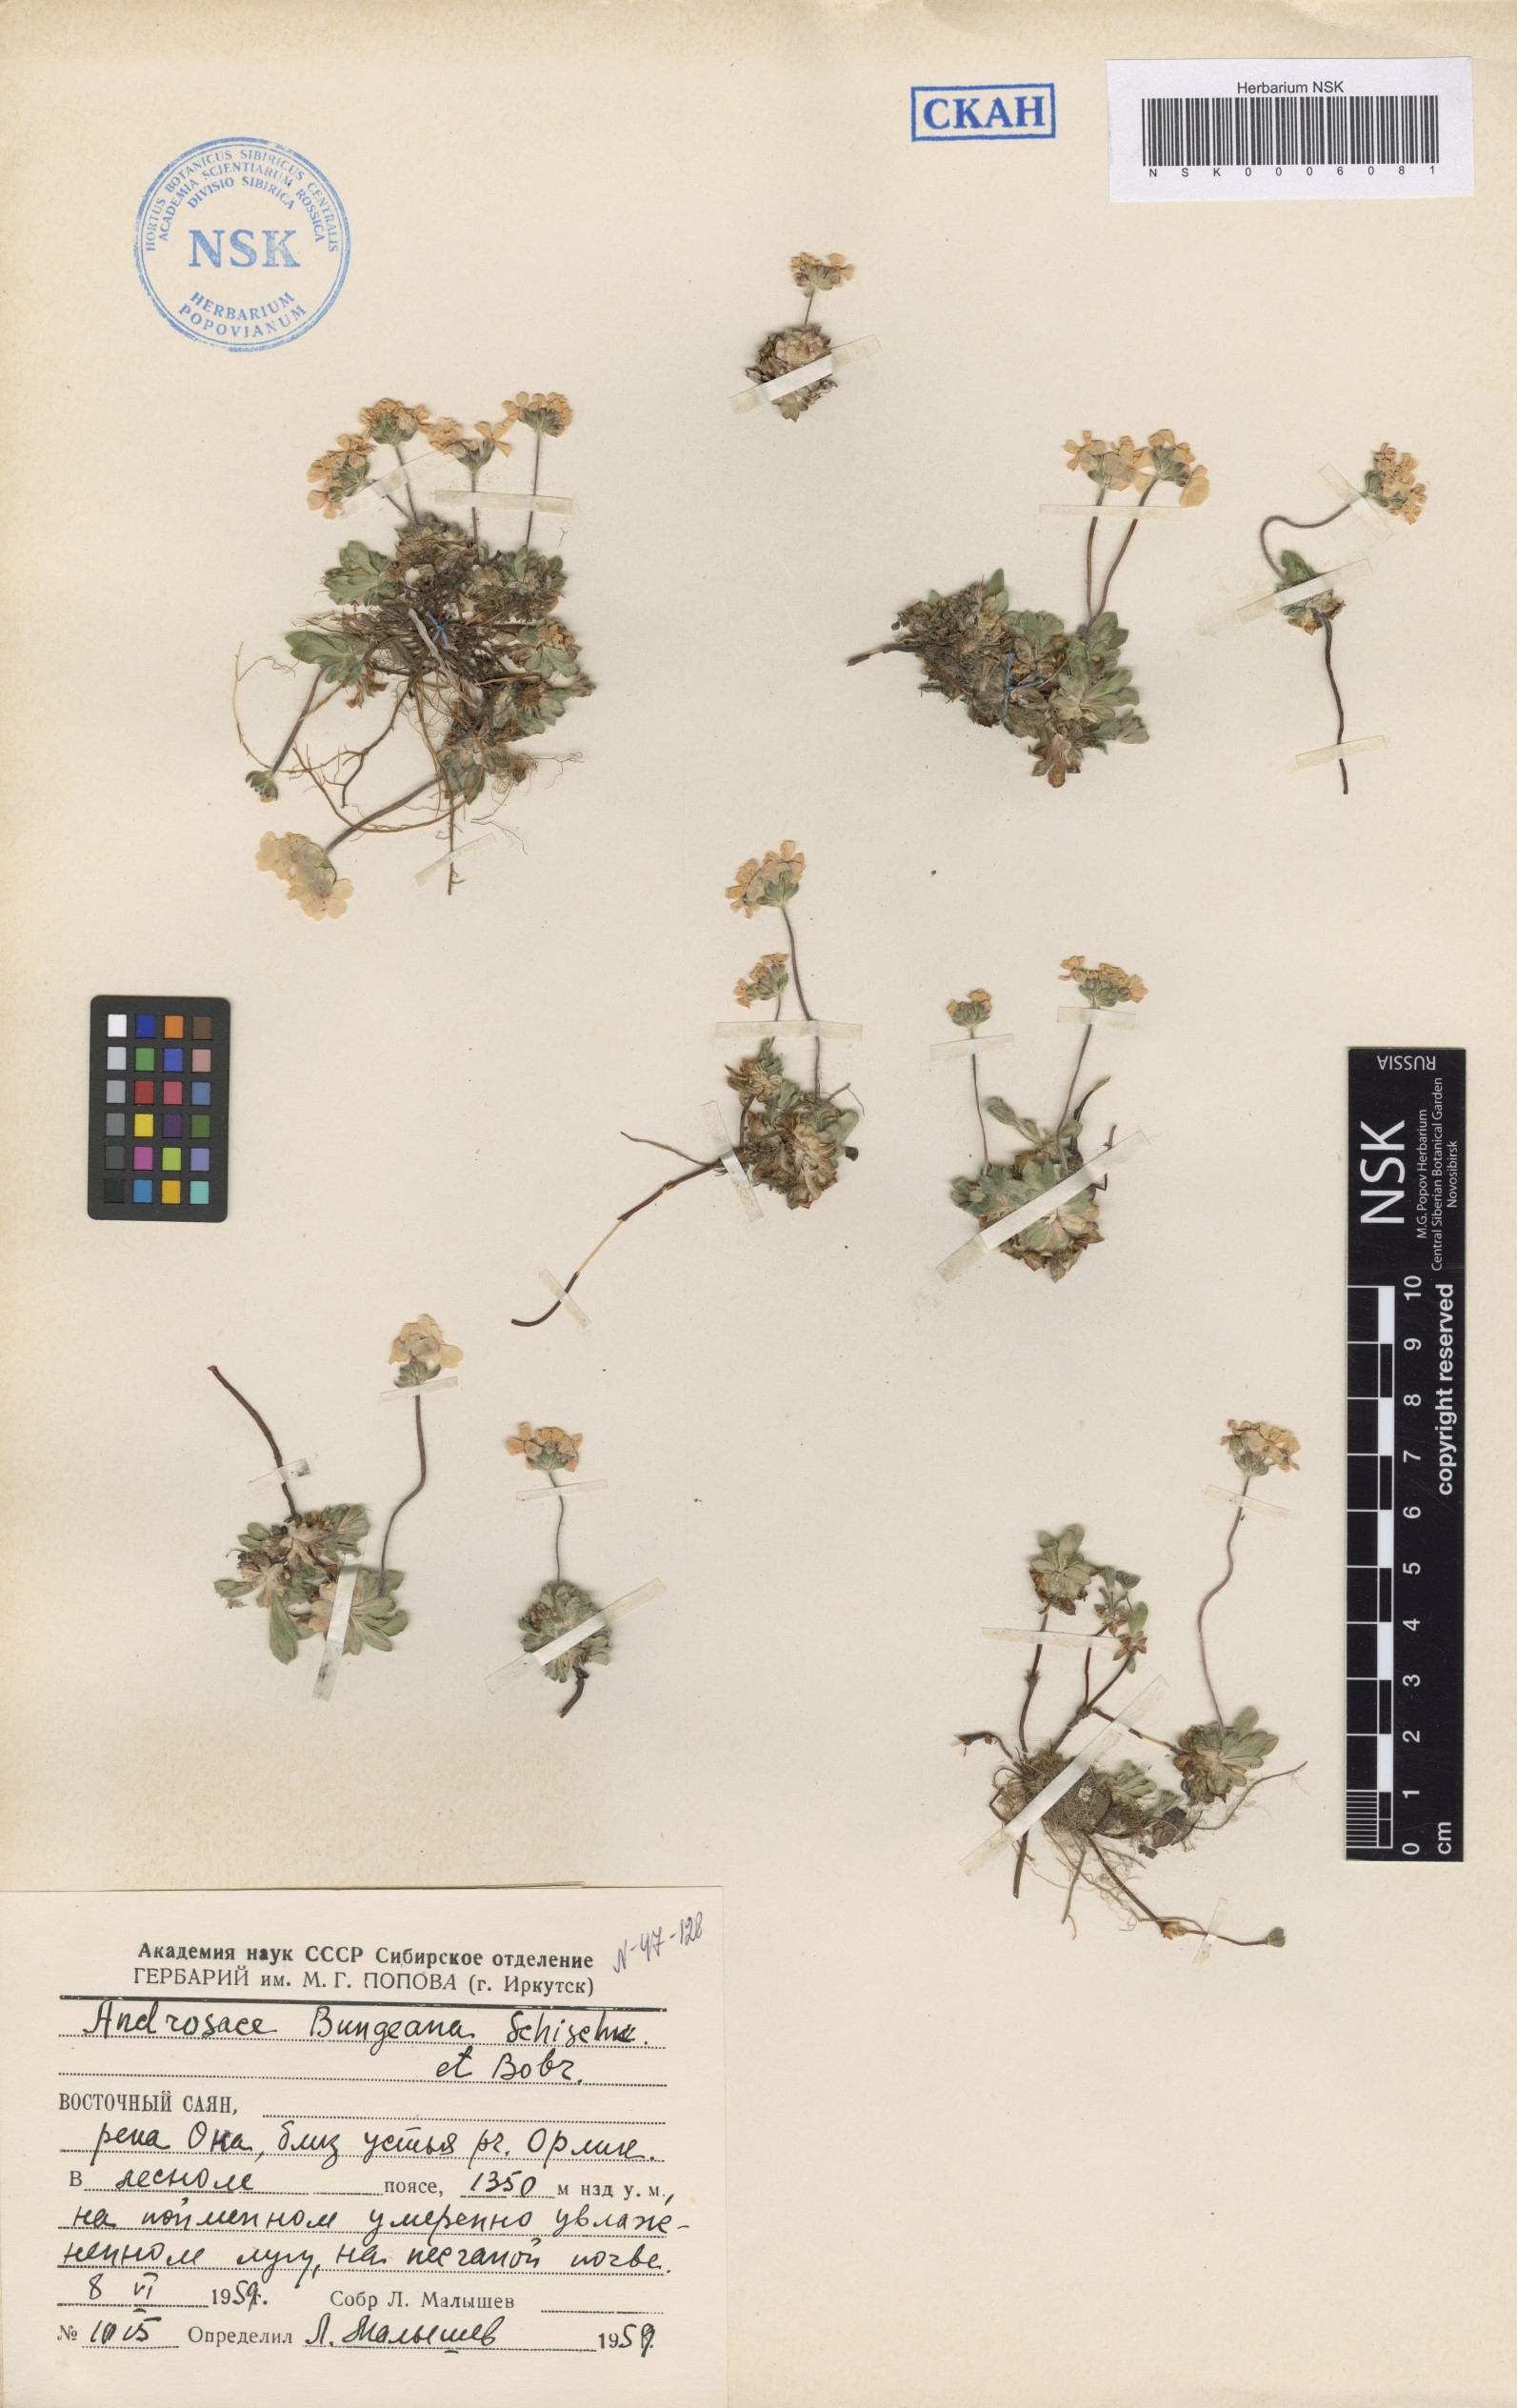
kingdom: Plantae
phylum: Tracheophyta
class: Magnoliopsida
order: Ericales
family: Primulaceae
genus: Androsace
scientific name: Androsace bungeana
